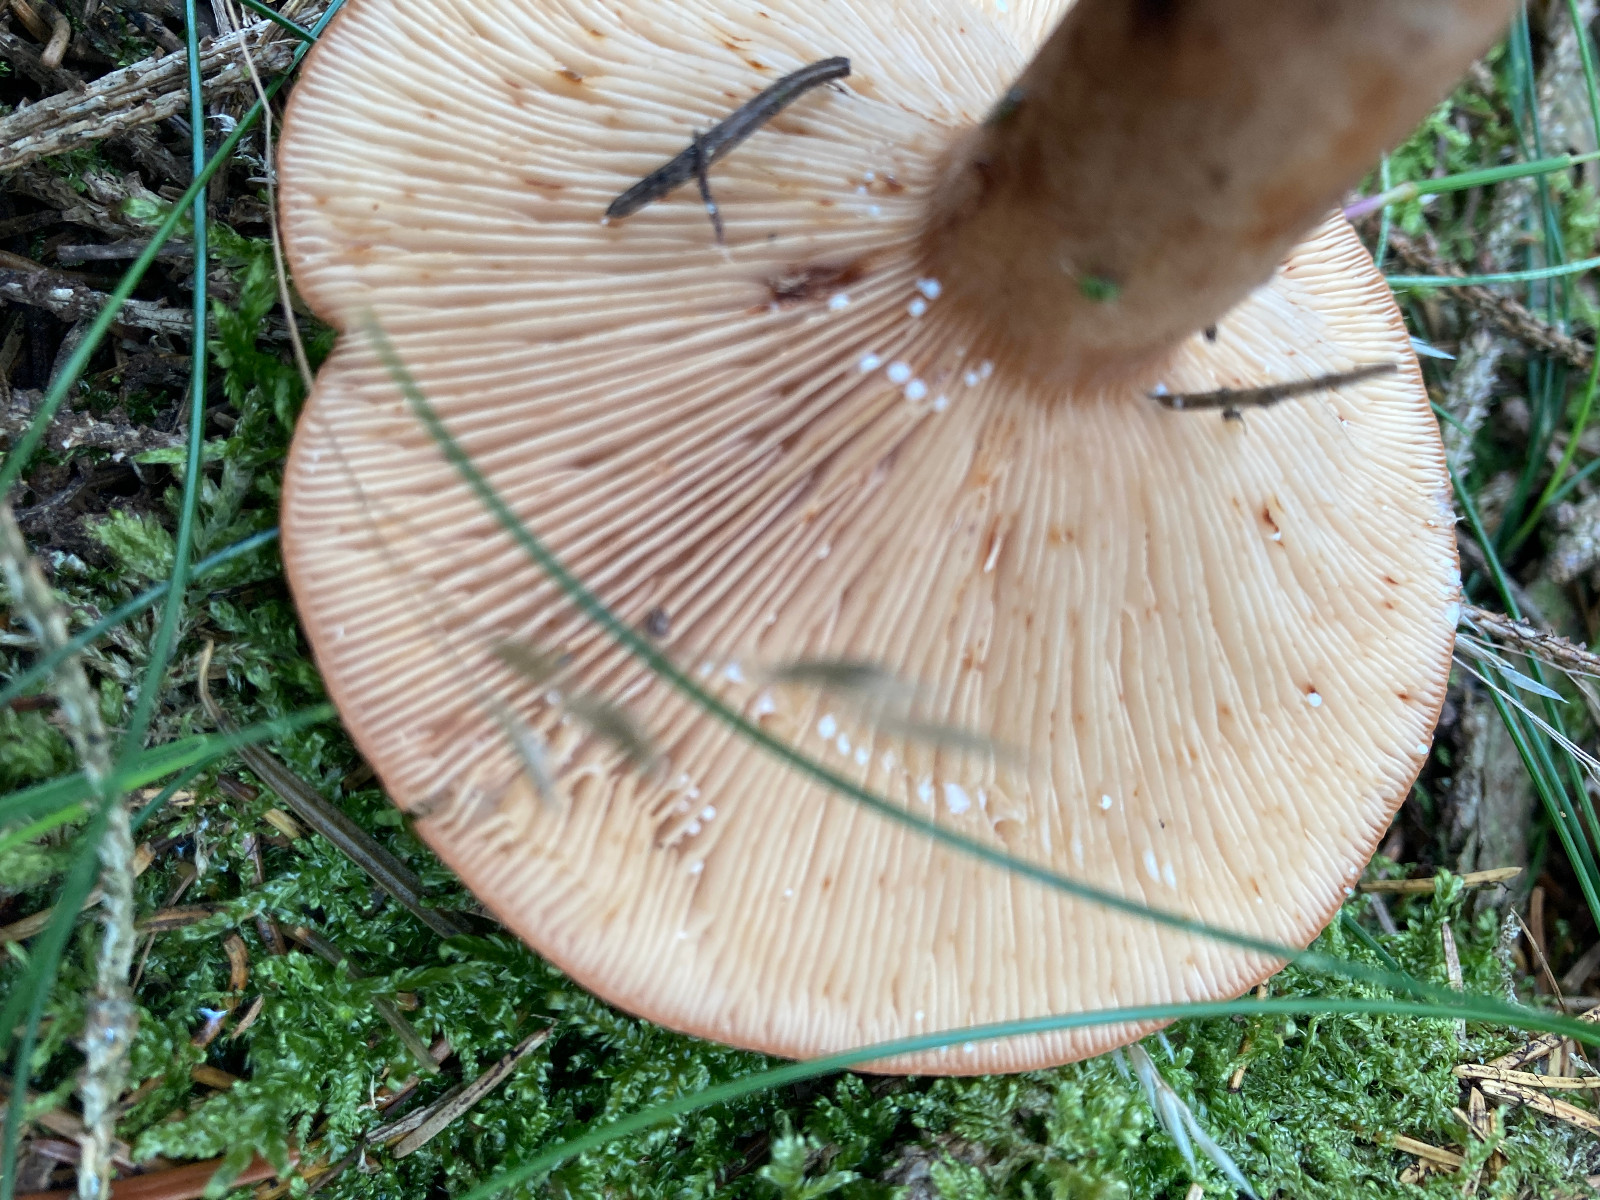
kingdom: Fungi
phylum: Basidiomycota
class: Agaricomycetes
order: Russulales
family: Russulaceae
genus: Lactarius
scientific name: Lactarius quietus
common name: ege-mælkehat
